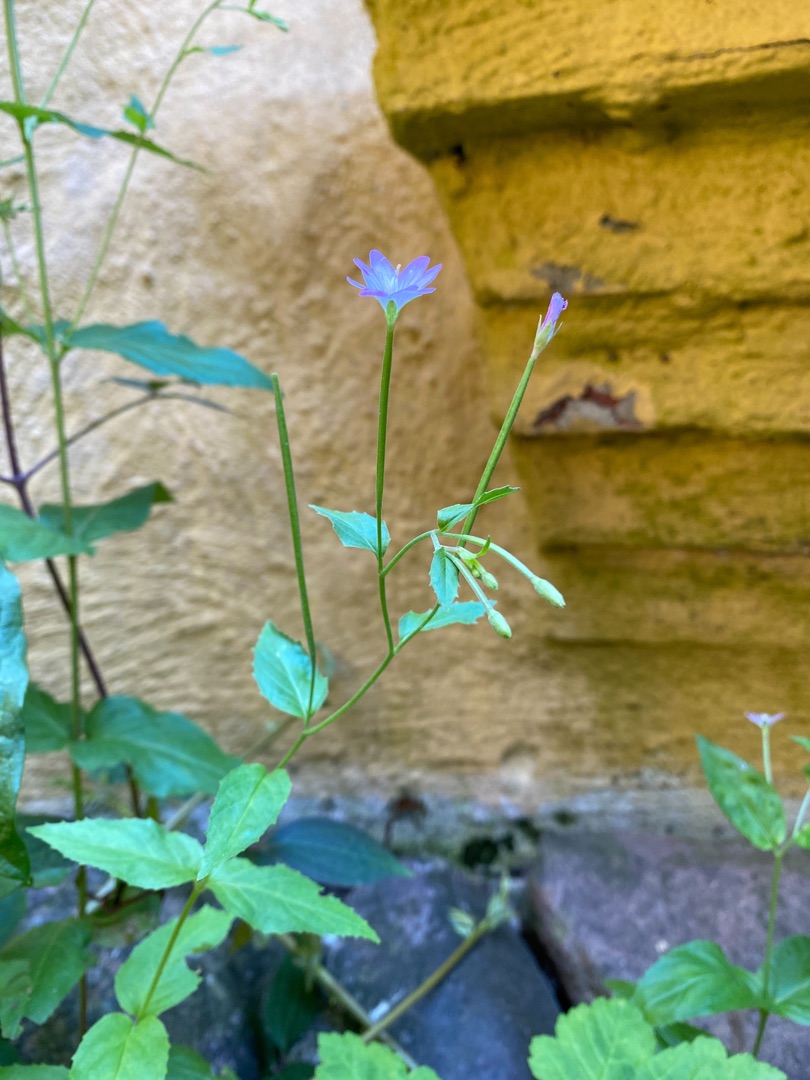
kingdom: Plantae
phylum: Tracheophyta
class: Magnoliopsida
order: Myrtales
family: Onagraceae
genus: Epilobium
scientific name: Epilobium montanum
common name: Glat dueurt
